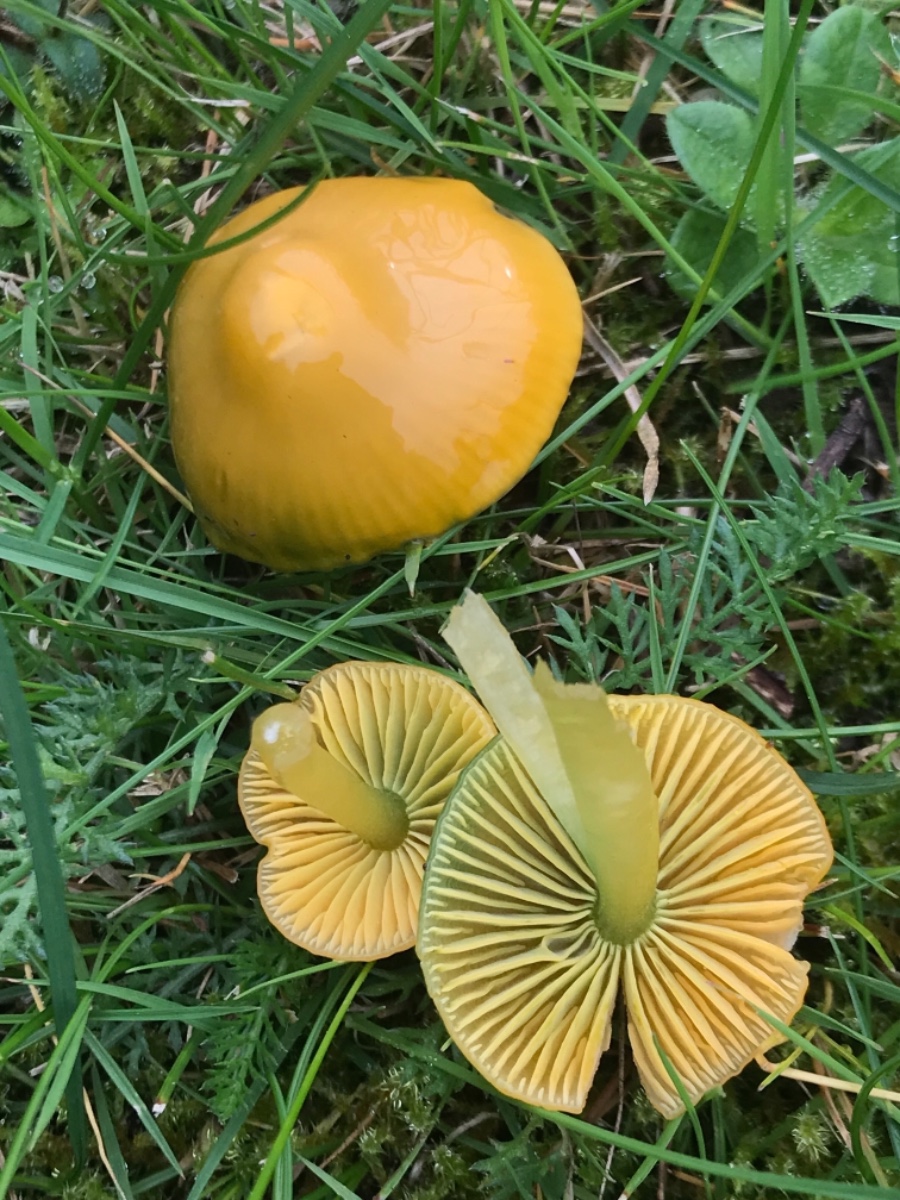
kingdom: Fungi
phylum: Basidiomycota
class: Agaricomycetes
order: Agaricales
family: Hygrophoraceae
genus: Gliophorus
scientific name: Gliophorus psittacinus
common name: papegøje-vokshat
